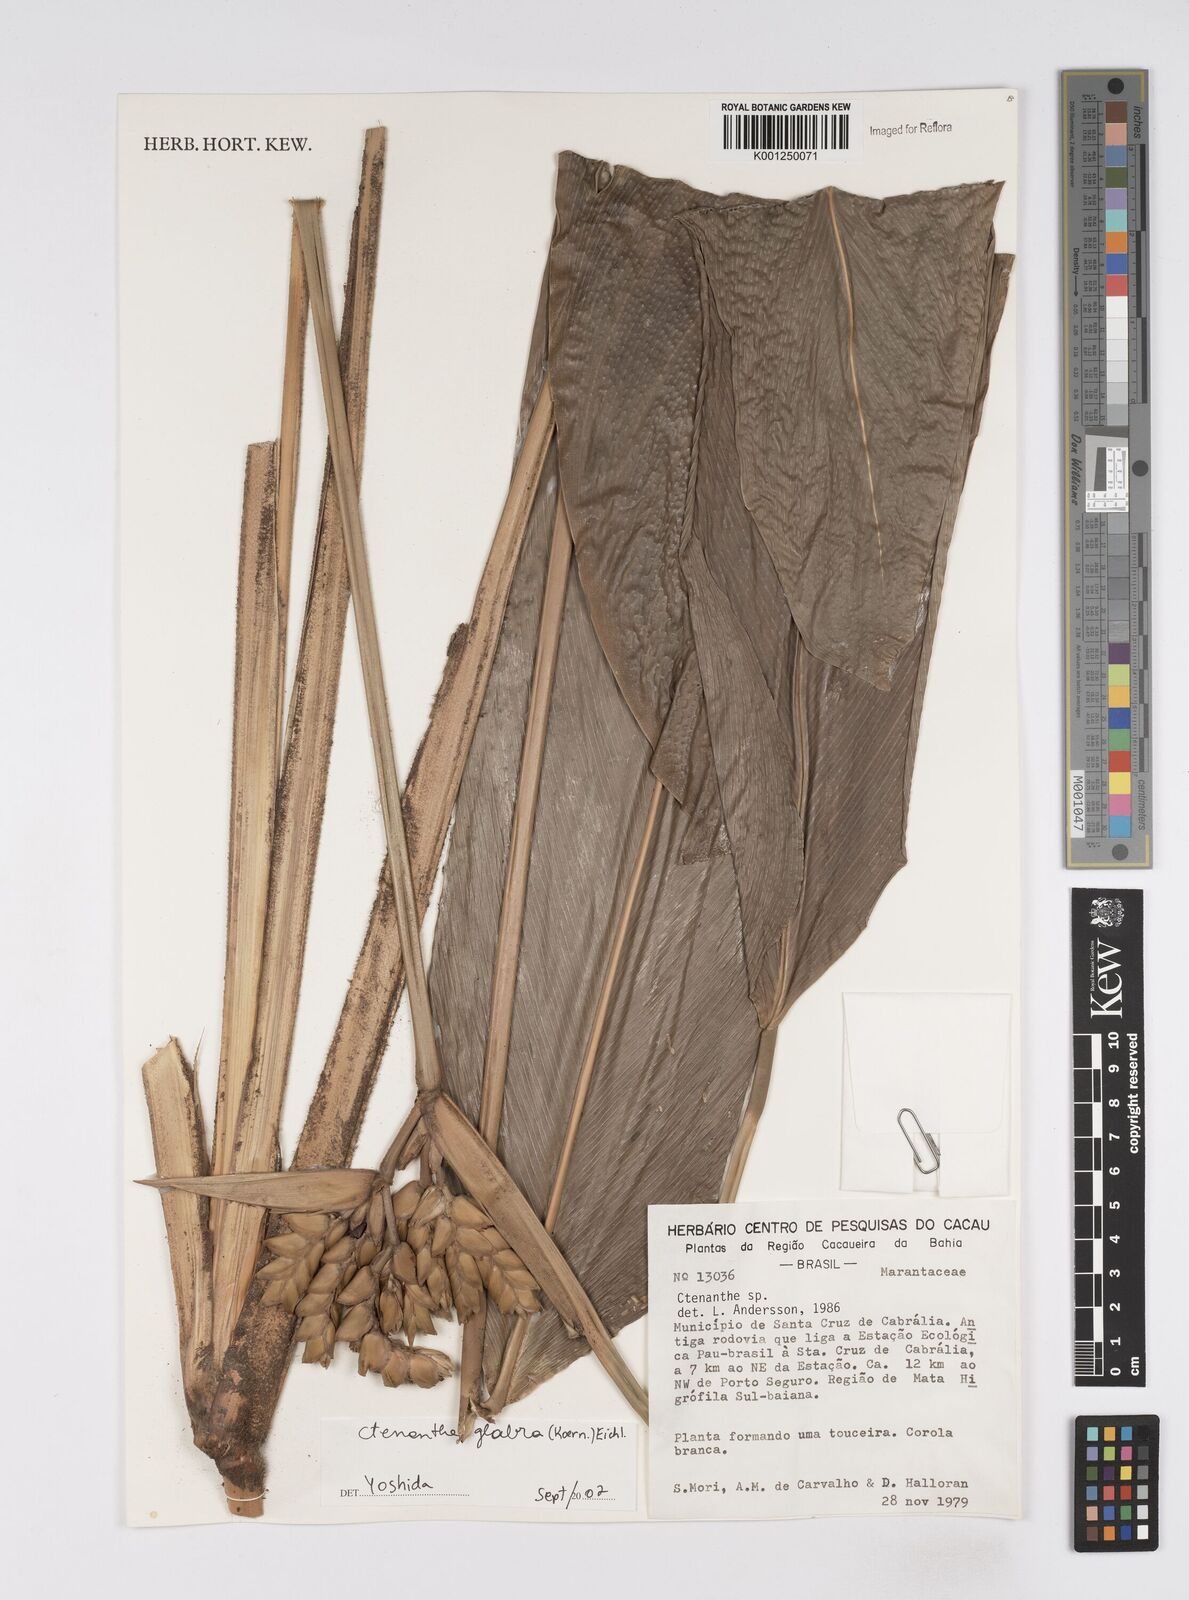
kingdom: Plantae
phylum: Tracheophyta
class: Liliopsida
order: Zingiberales
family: Marantaceae
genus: Ctenanthe
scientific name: Ctenanthe glabra
